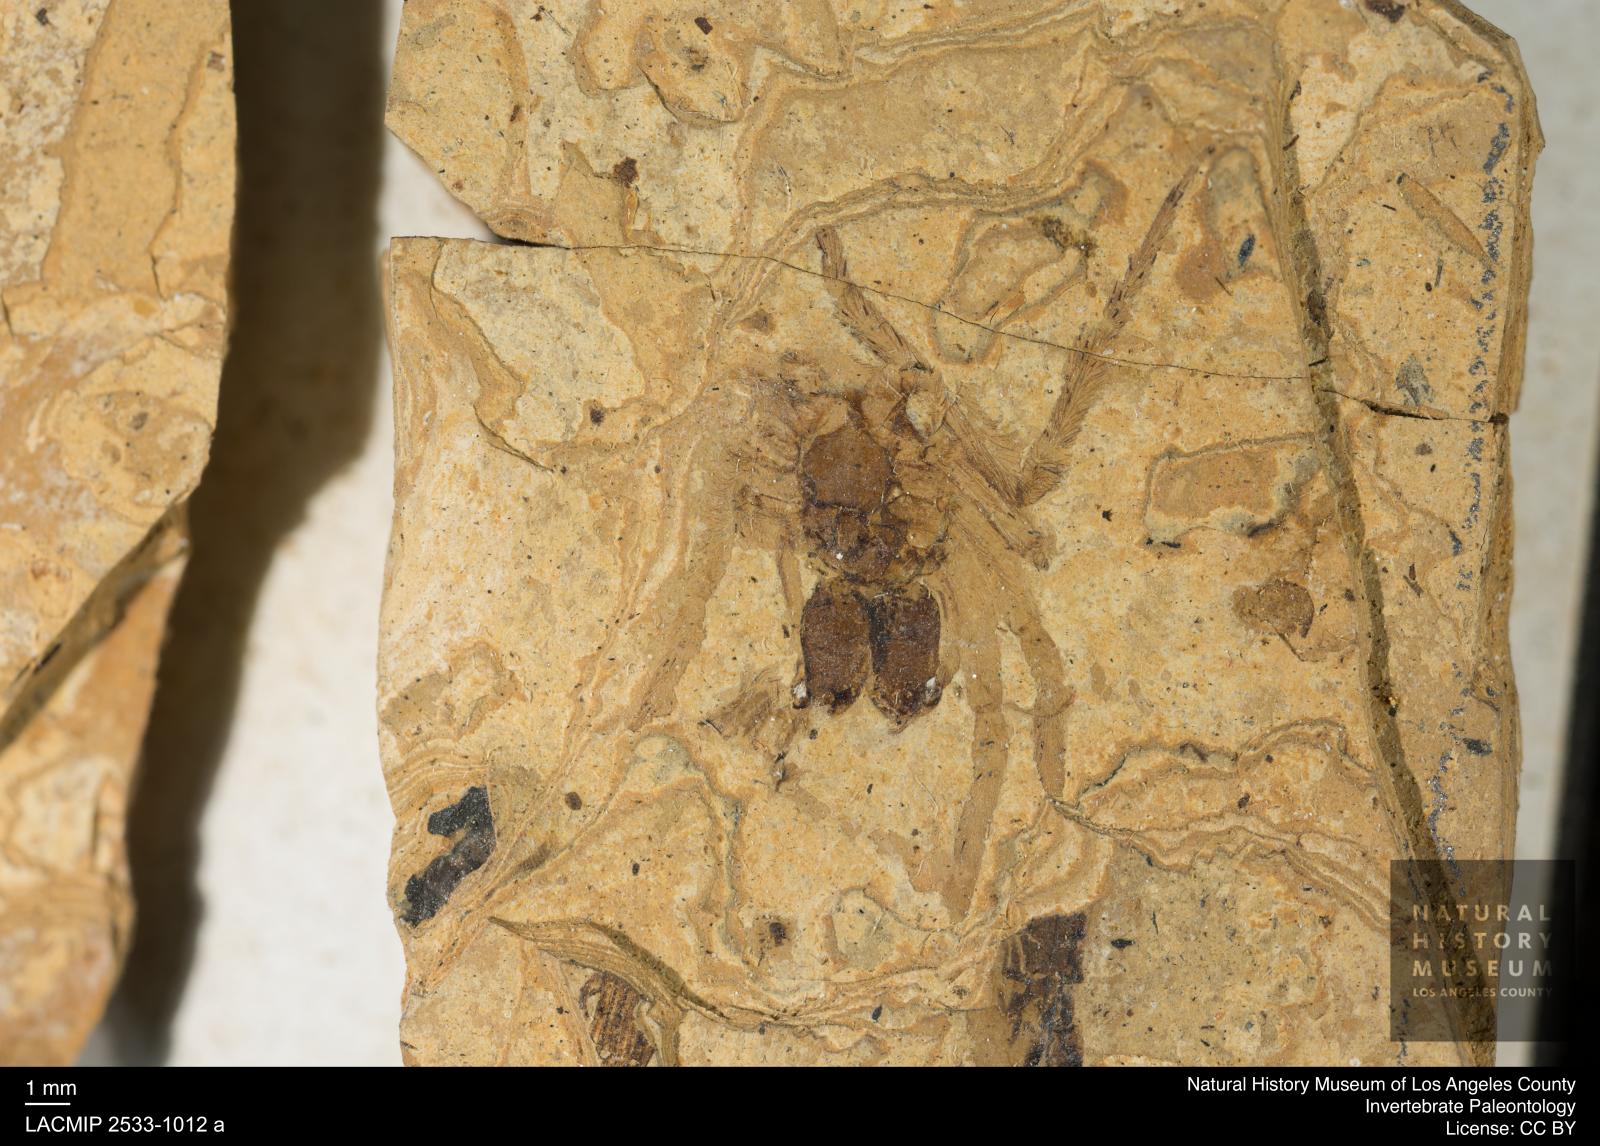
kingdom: Animalia
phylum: Arthropoda
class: Arachnida
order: Araneae
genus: Elvina
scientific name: Elvina Argyroneta antiqua
